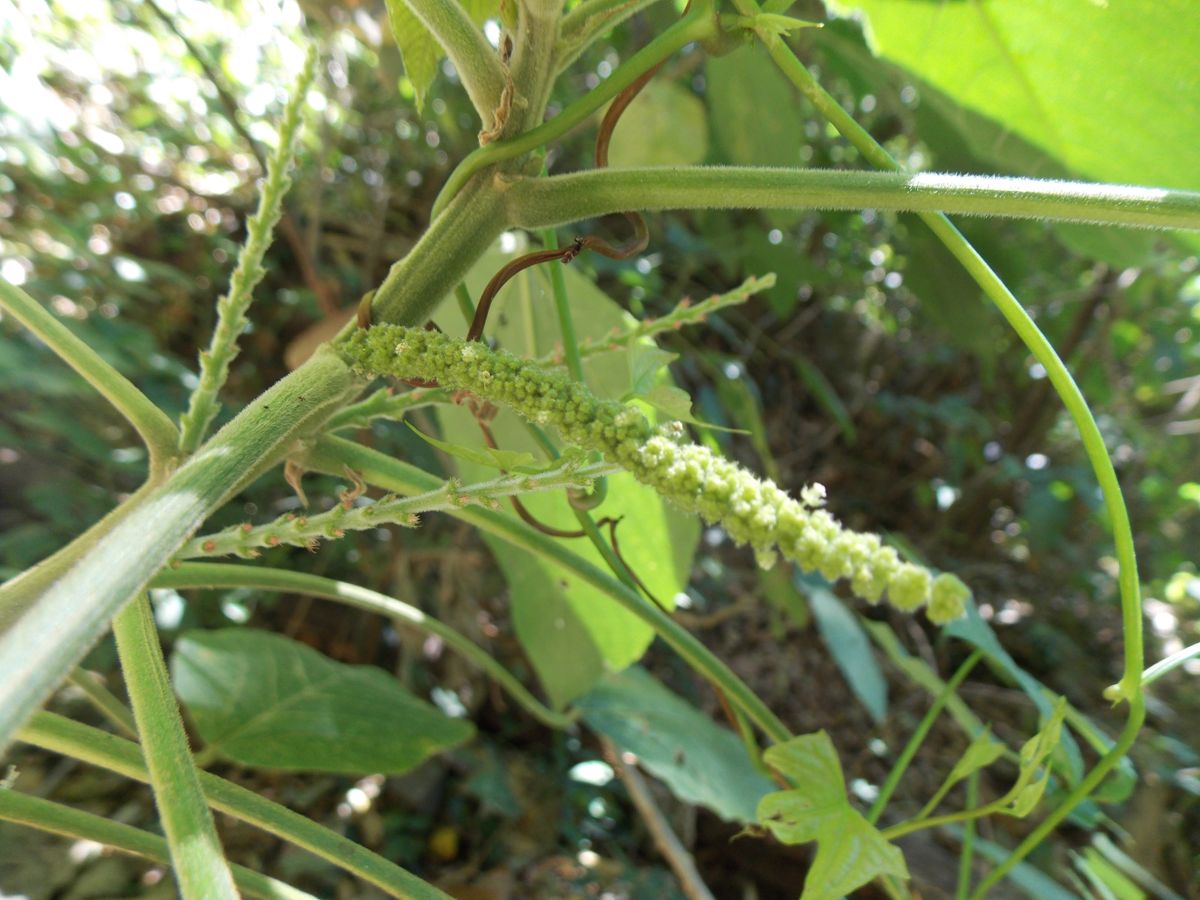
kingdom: Plantae
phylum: Tracheophyta
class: Magnoliopsida
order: Malpighiales
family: Euphorbiaceae
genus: Acalypha
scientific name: Acalypha macrostachya
